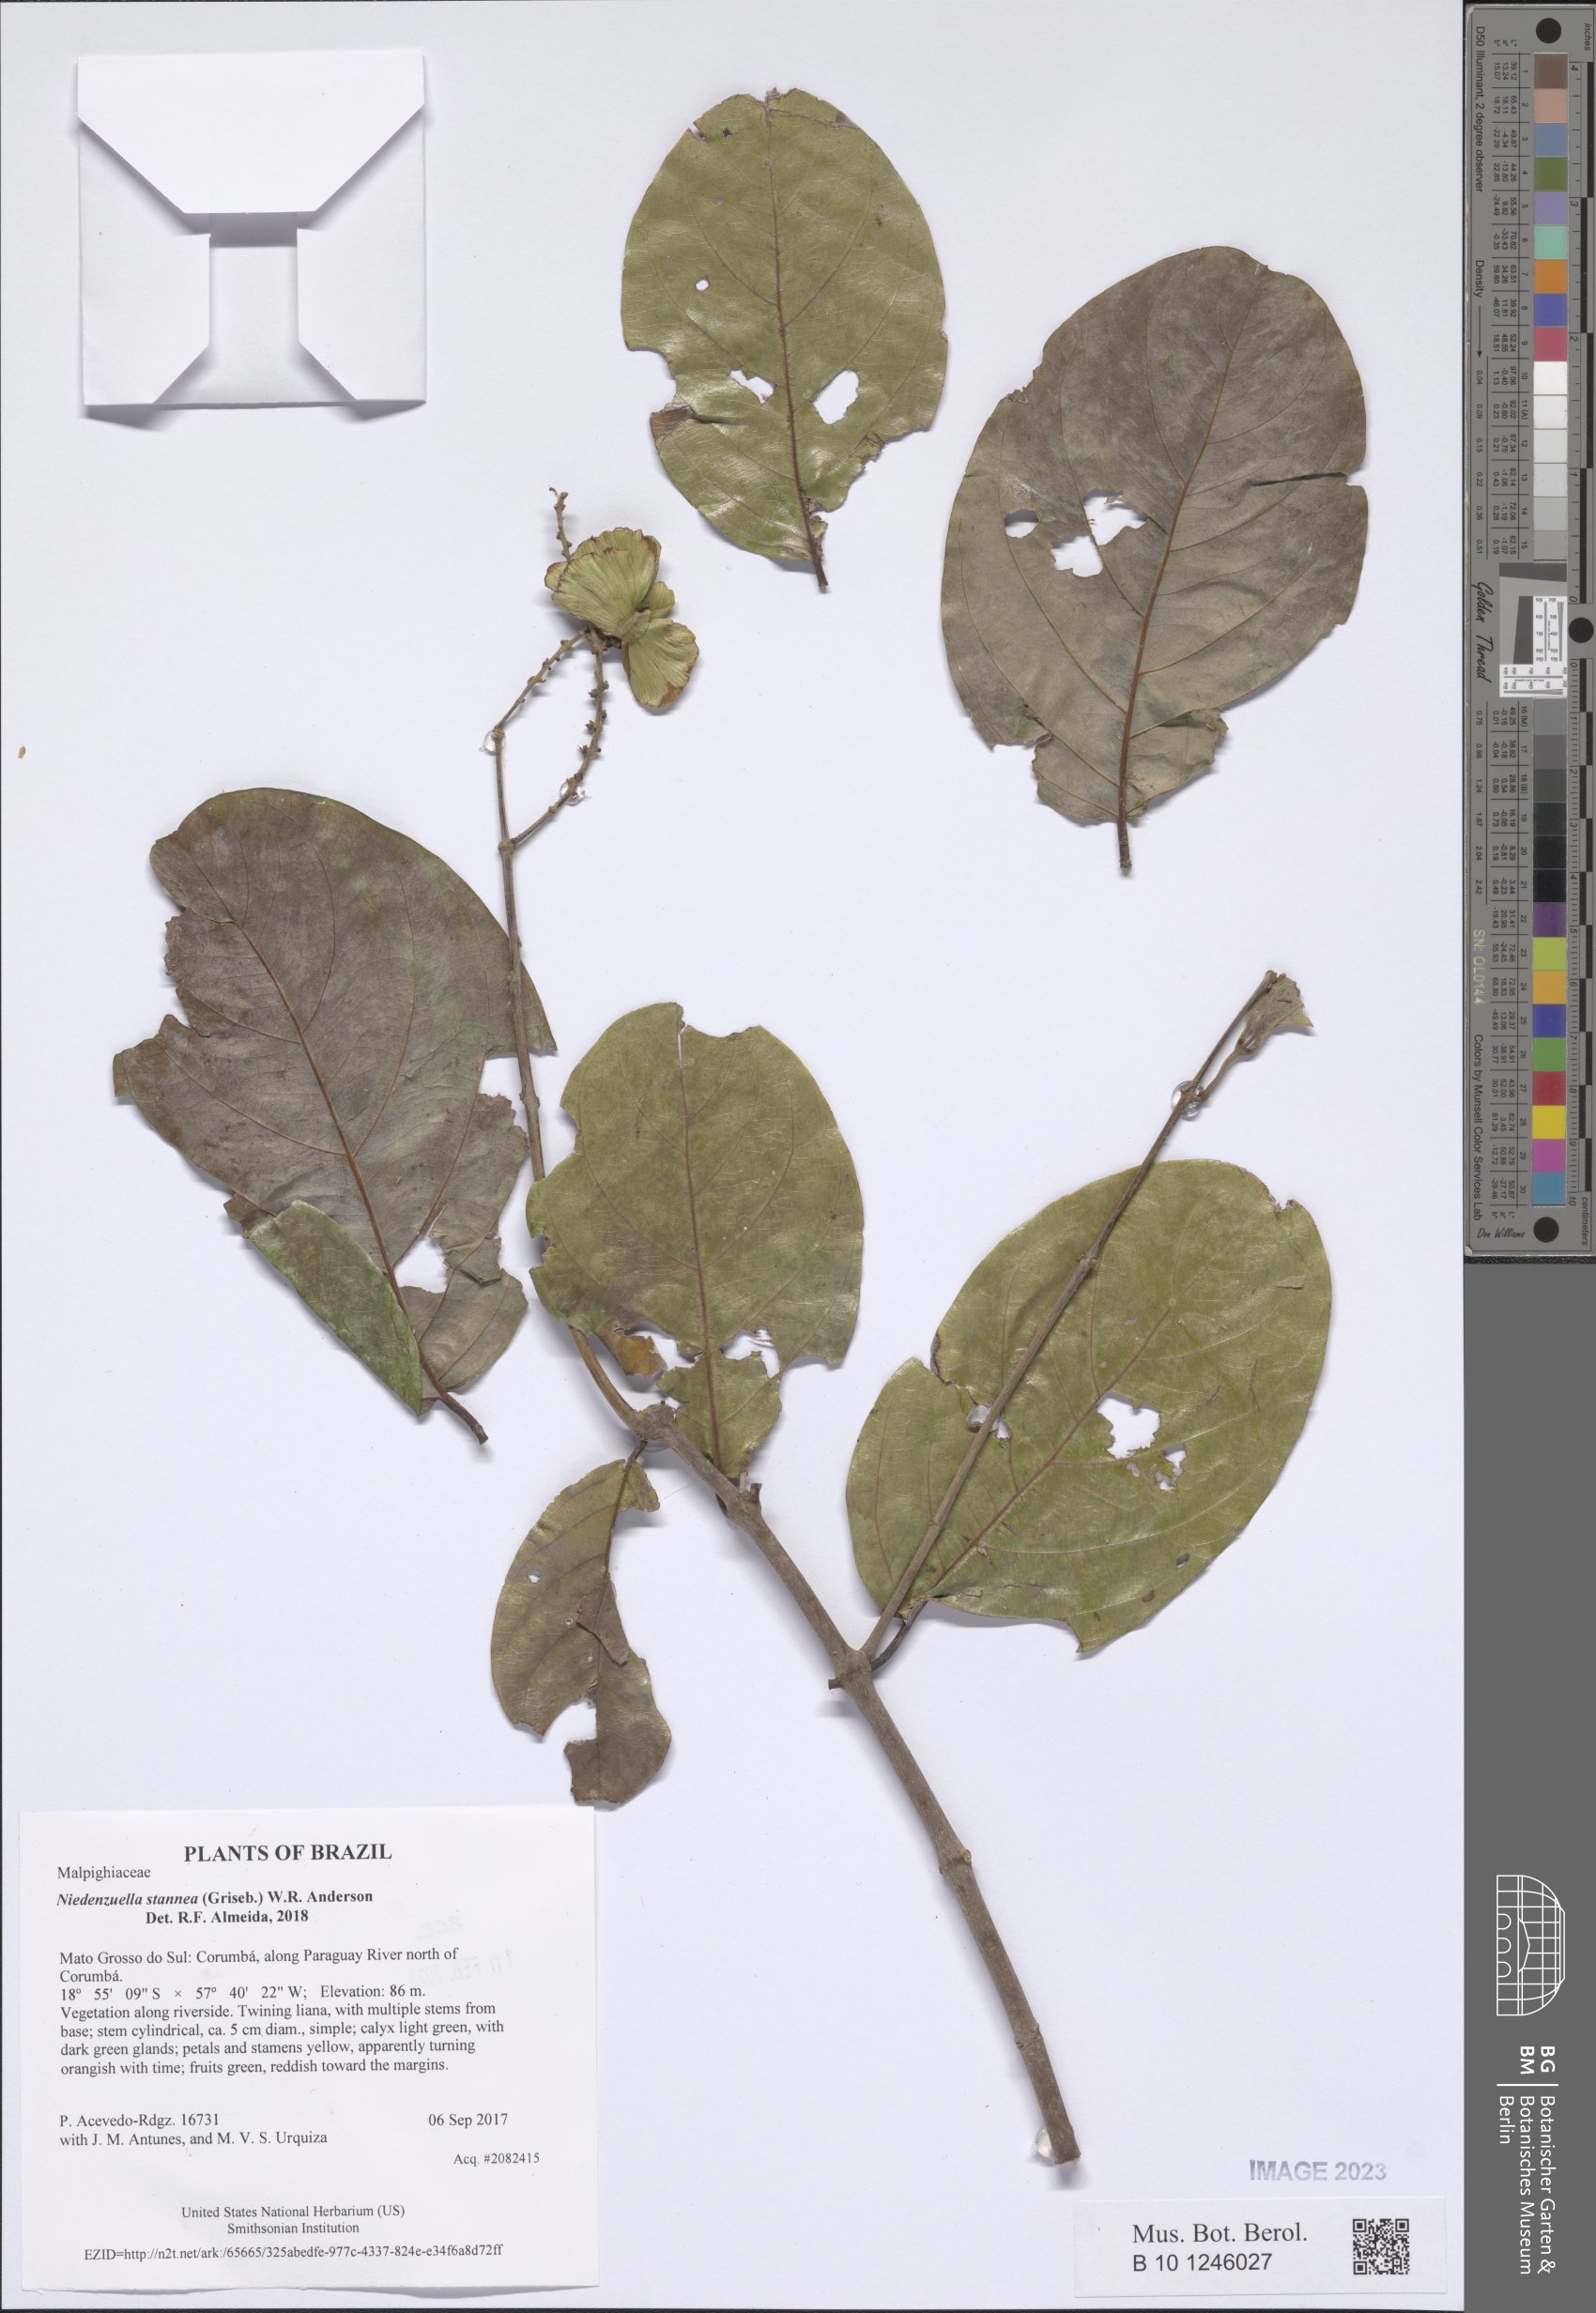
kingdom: Plantae
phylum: Tracheophyta
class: Magnoliopsida
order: Malpighiales
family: Malpighiaceae
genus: Niedenzuella
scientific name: Niedenzuella stannea
